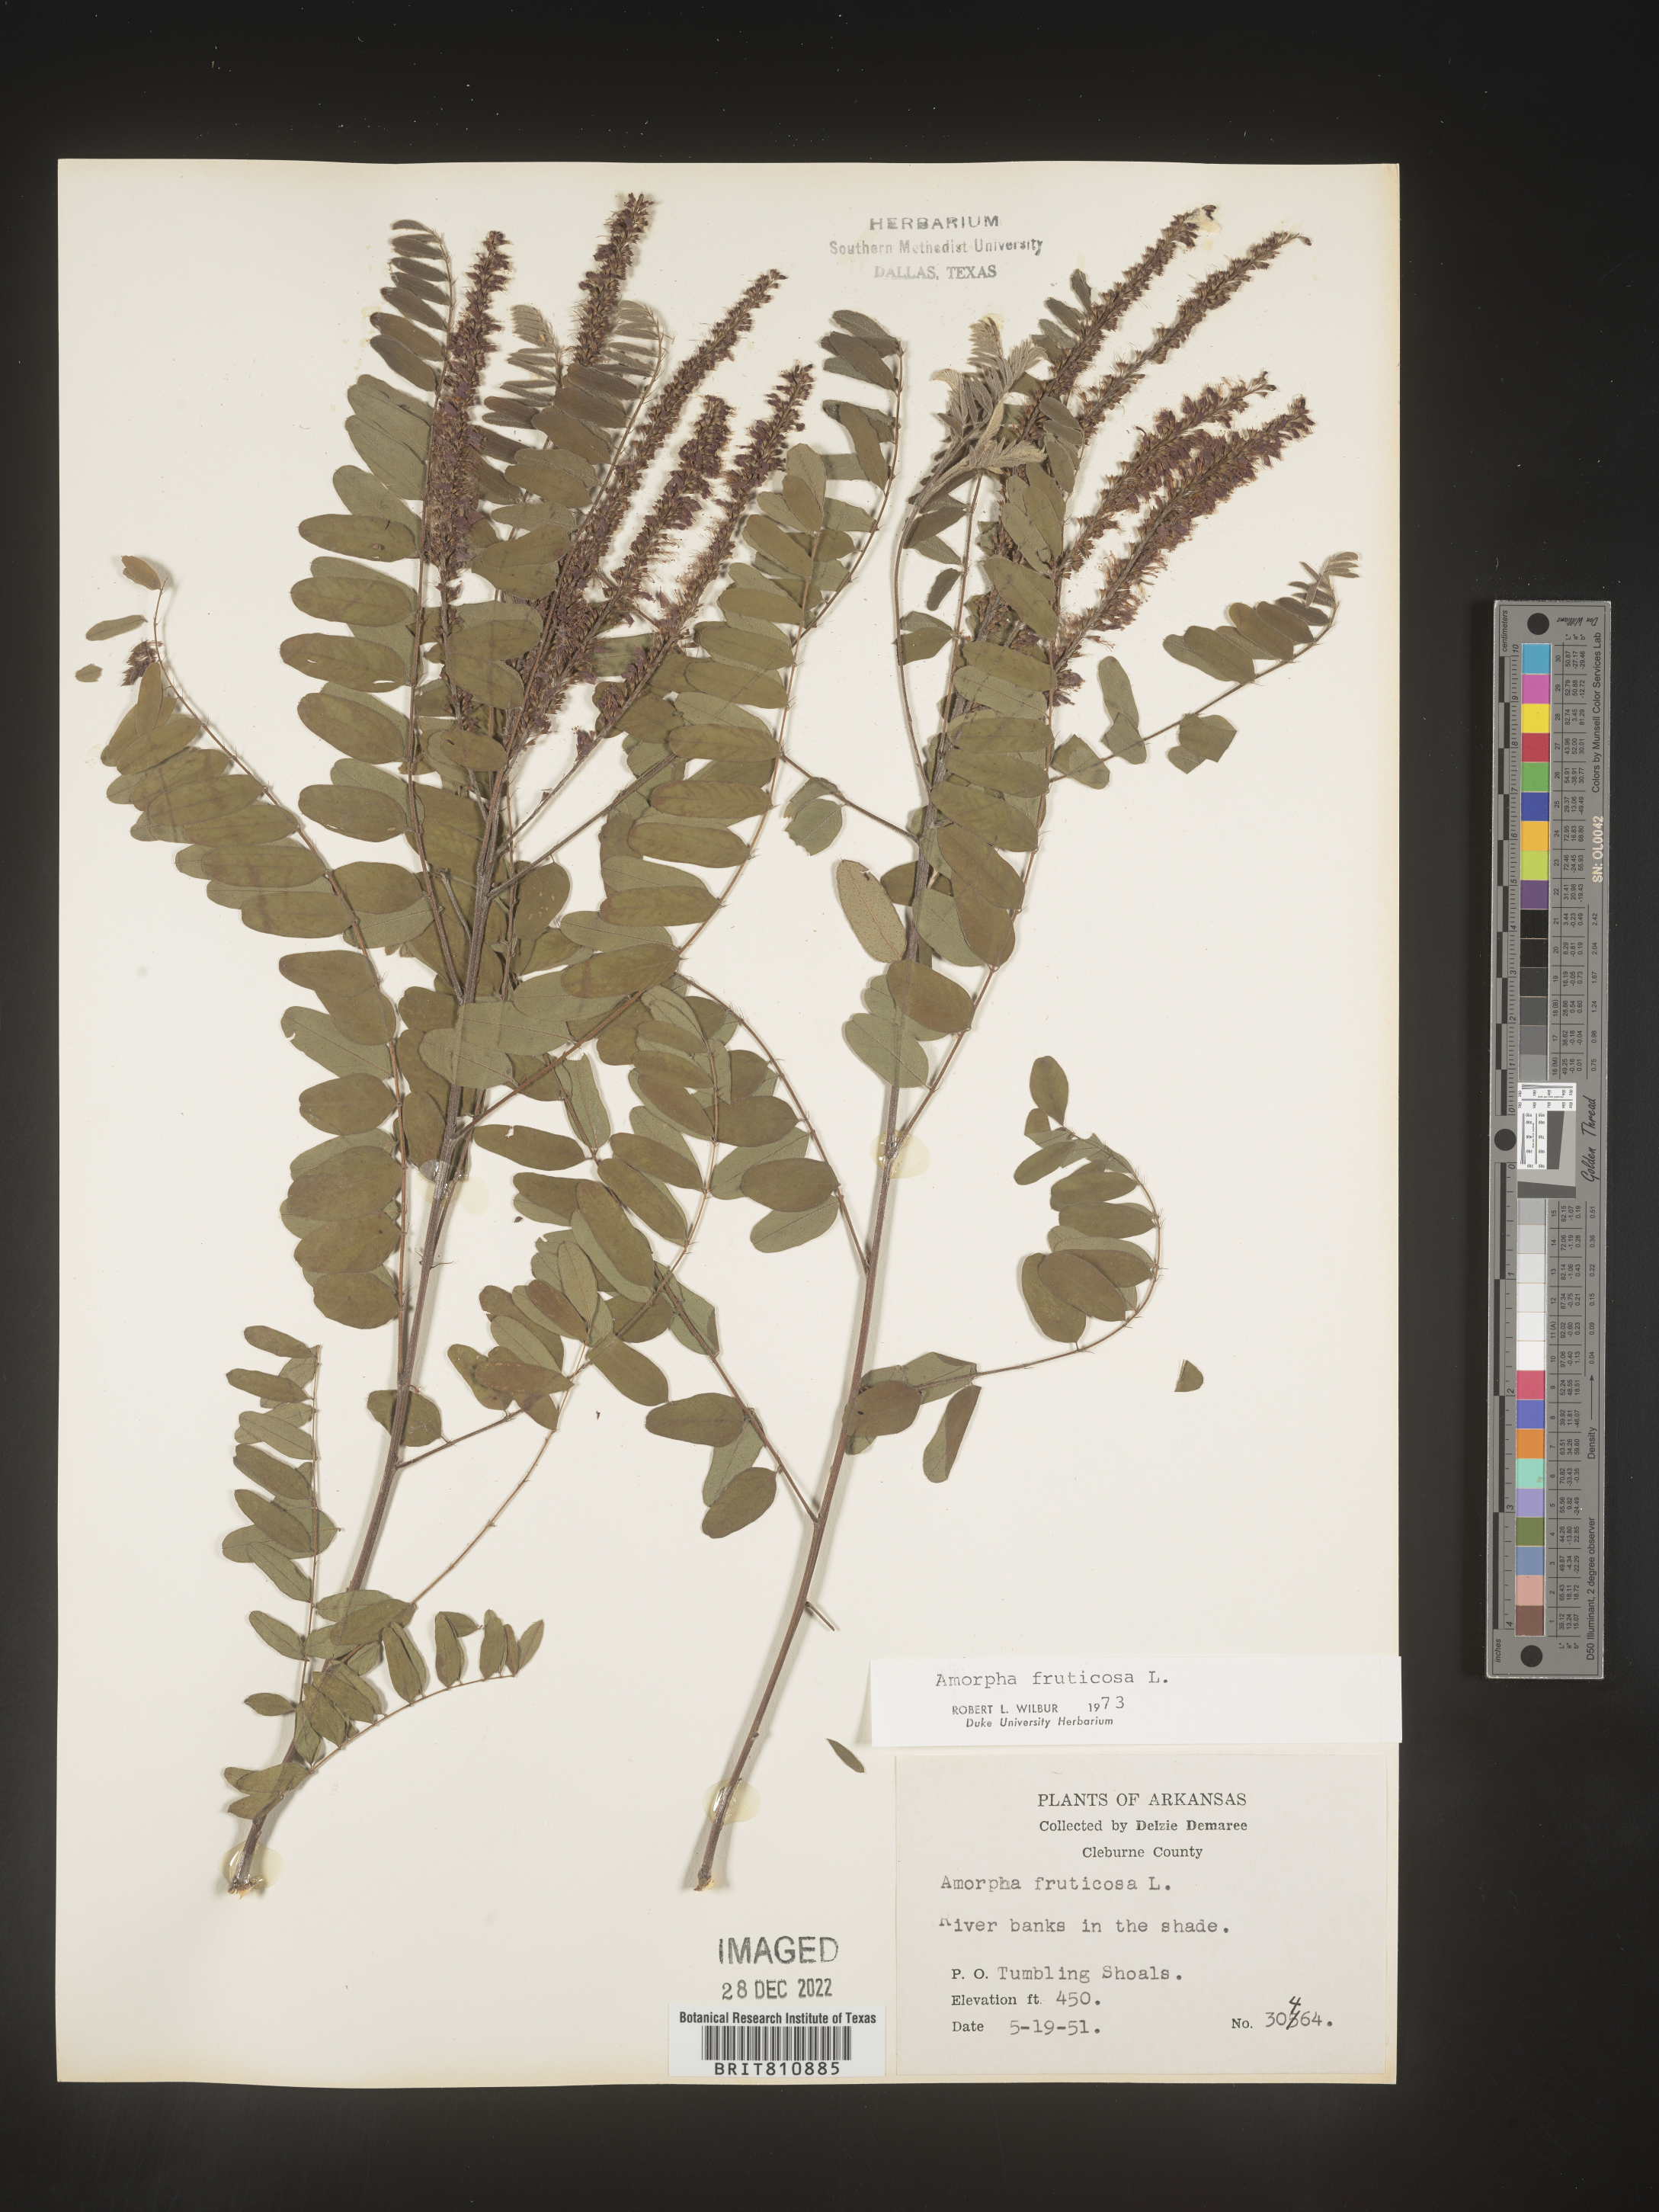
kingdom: Plantae
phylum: Tracheophyta
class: Magnoliopsida
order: Fabales
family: Fabaceae
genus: Amorpha
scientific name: Amorpha fruticosa
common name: False indigo
